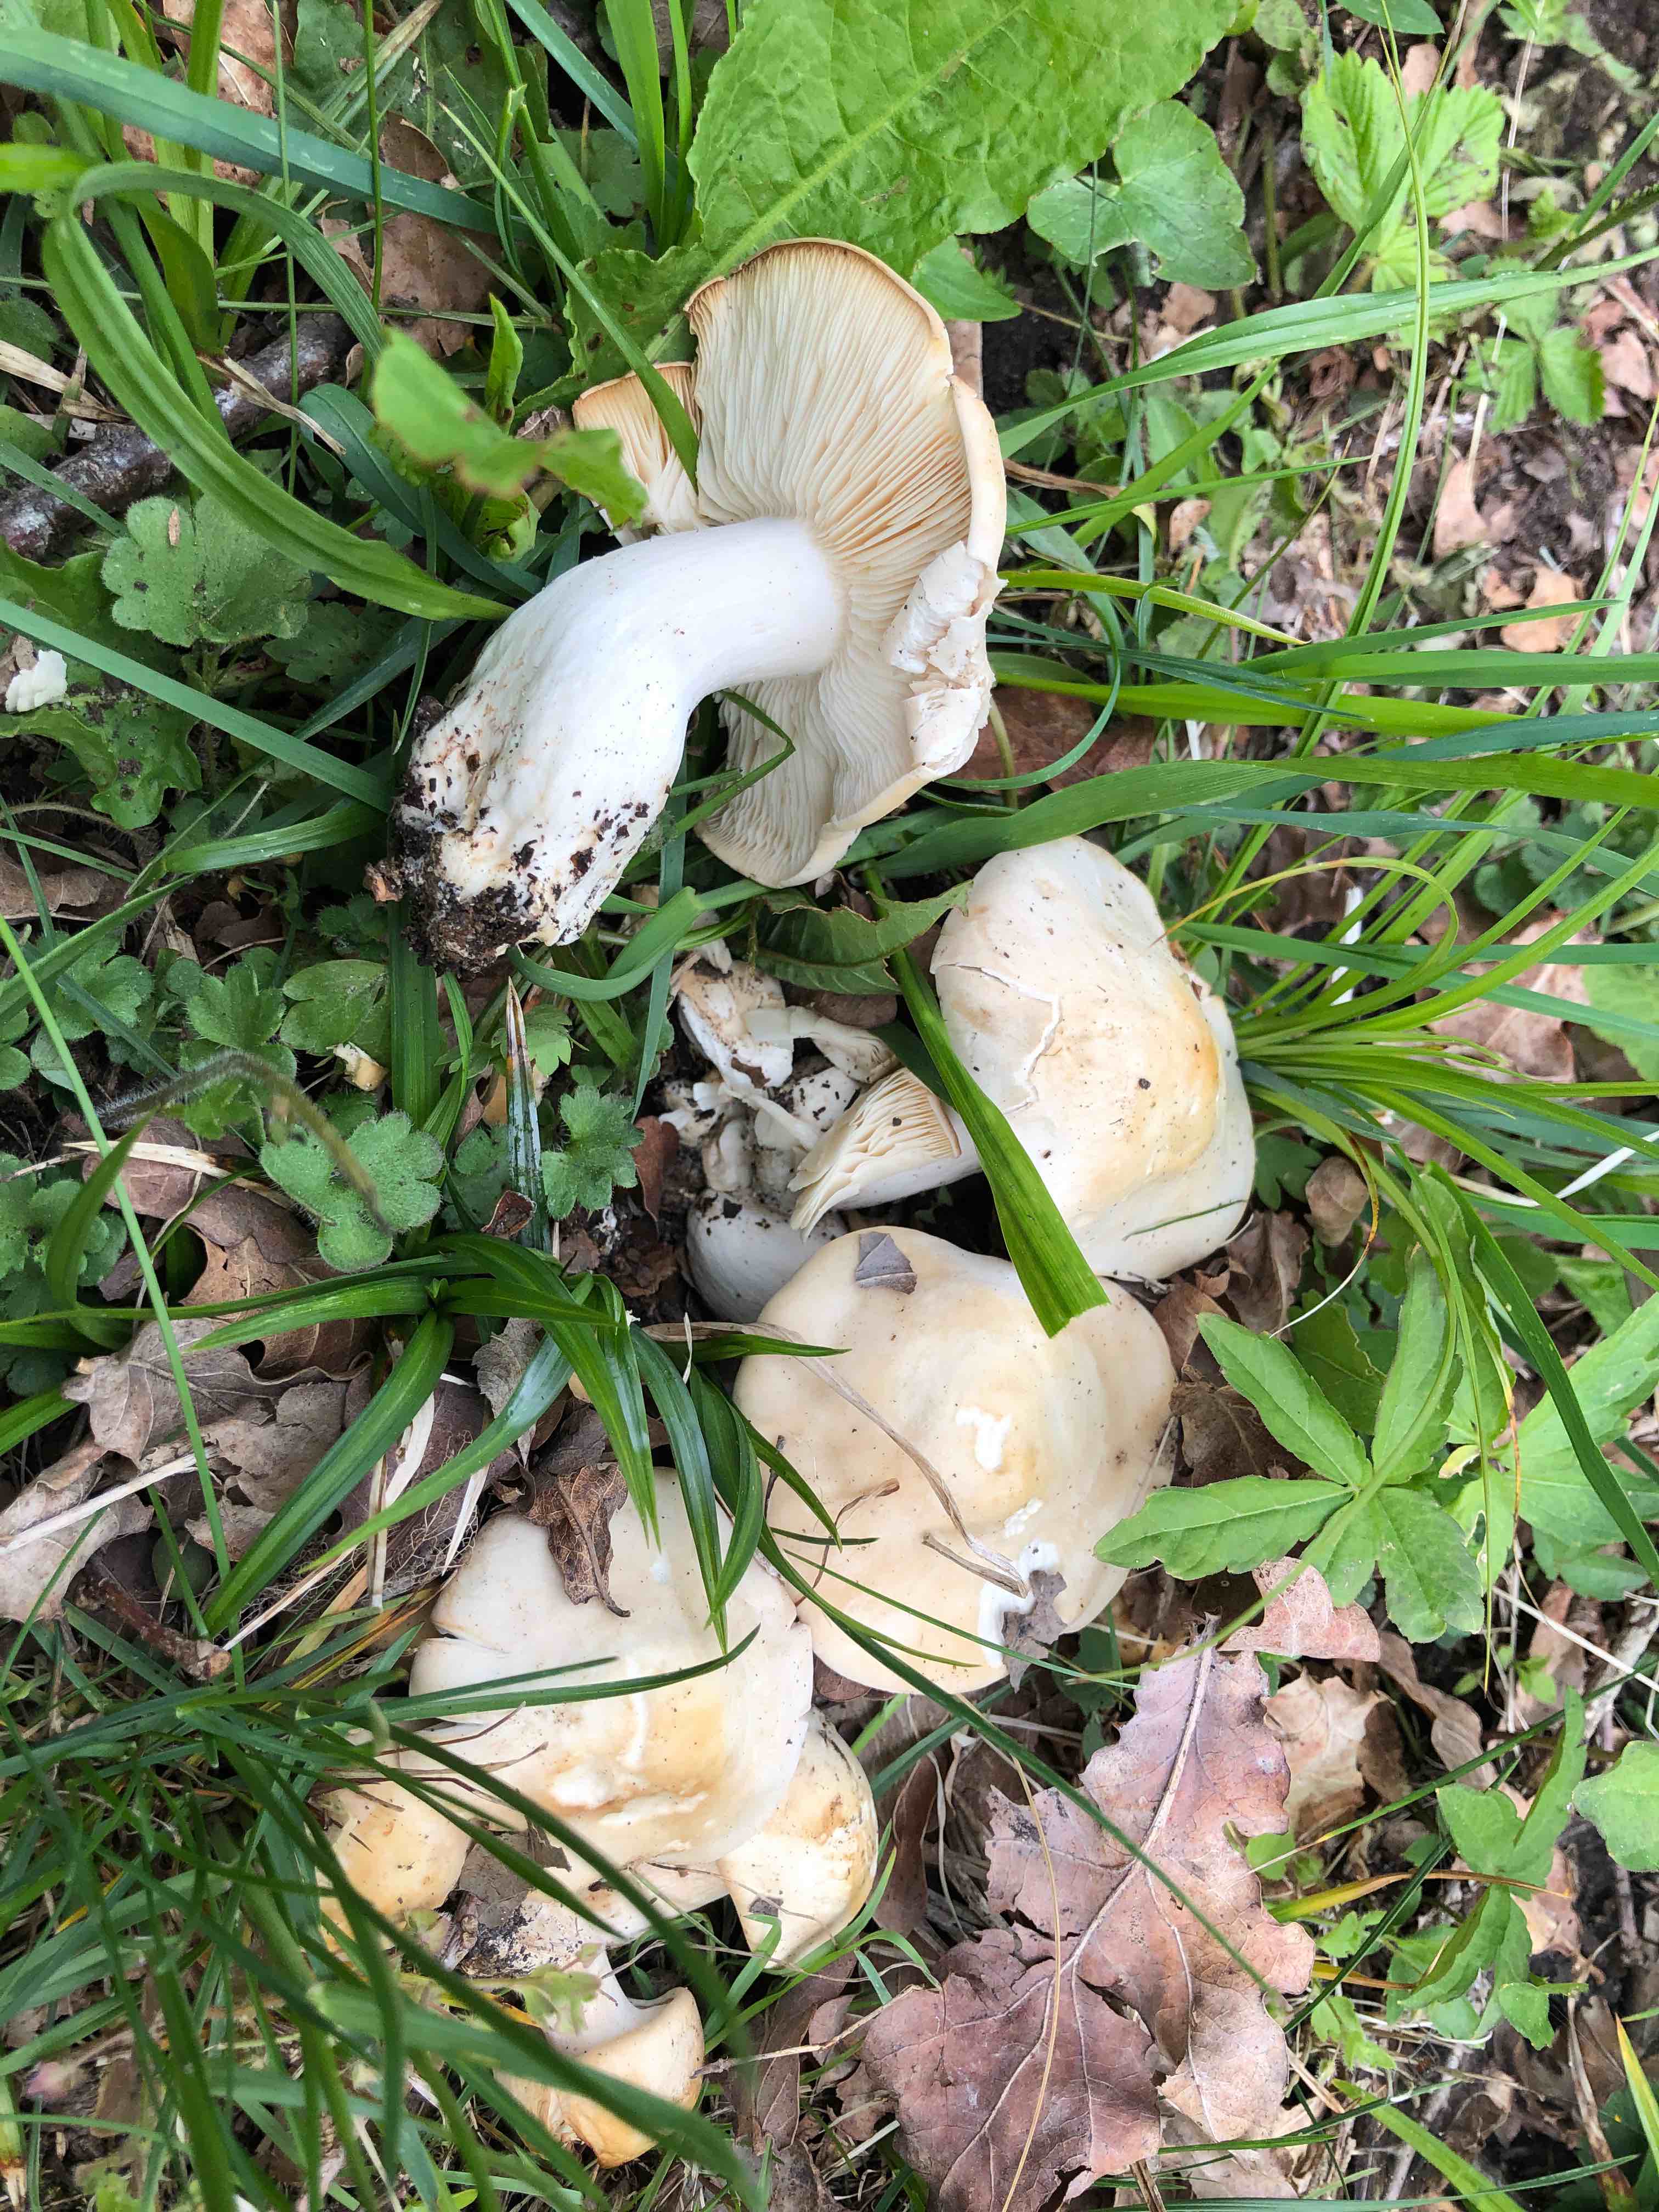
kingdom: Fungi
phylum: Basidiomycota
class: Agaricomycetes
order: Agaricales
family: Lyophyllaceae
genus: Calocybe
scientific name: Calocybe gambosa
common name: vårmusseron
